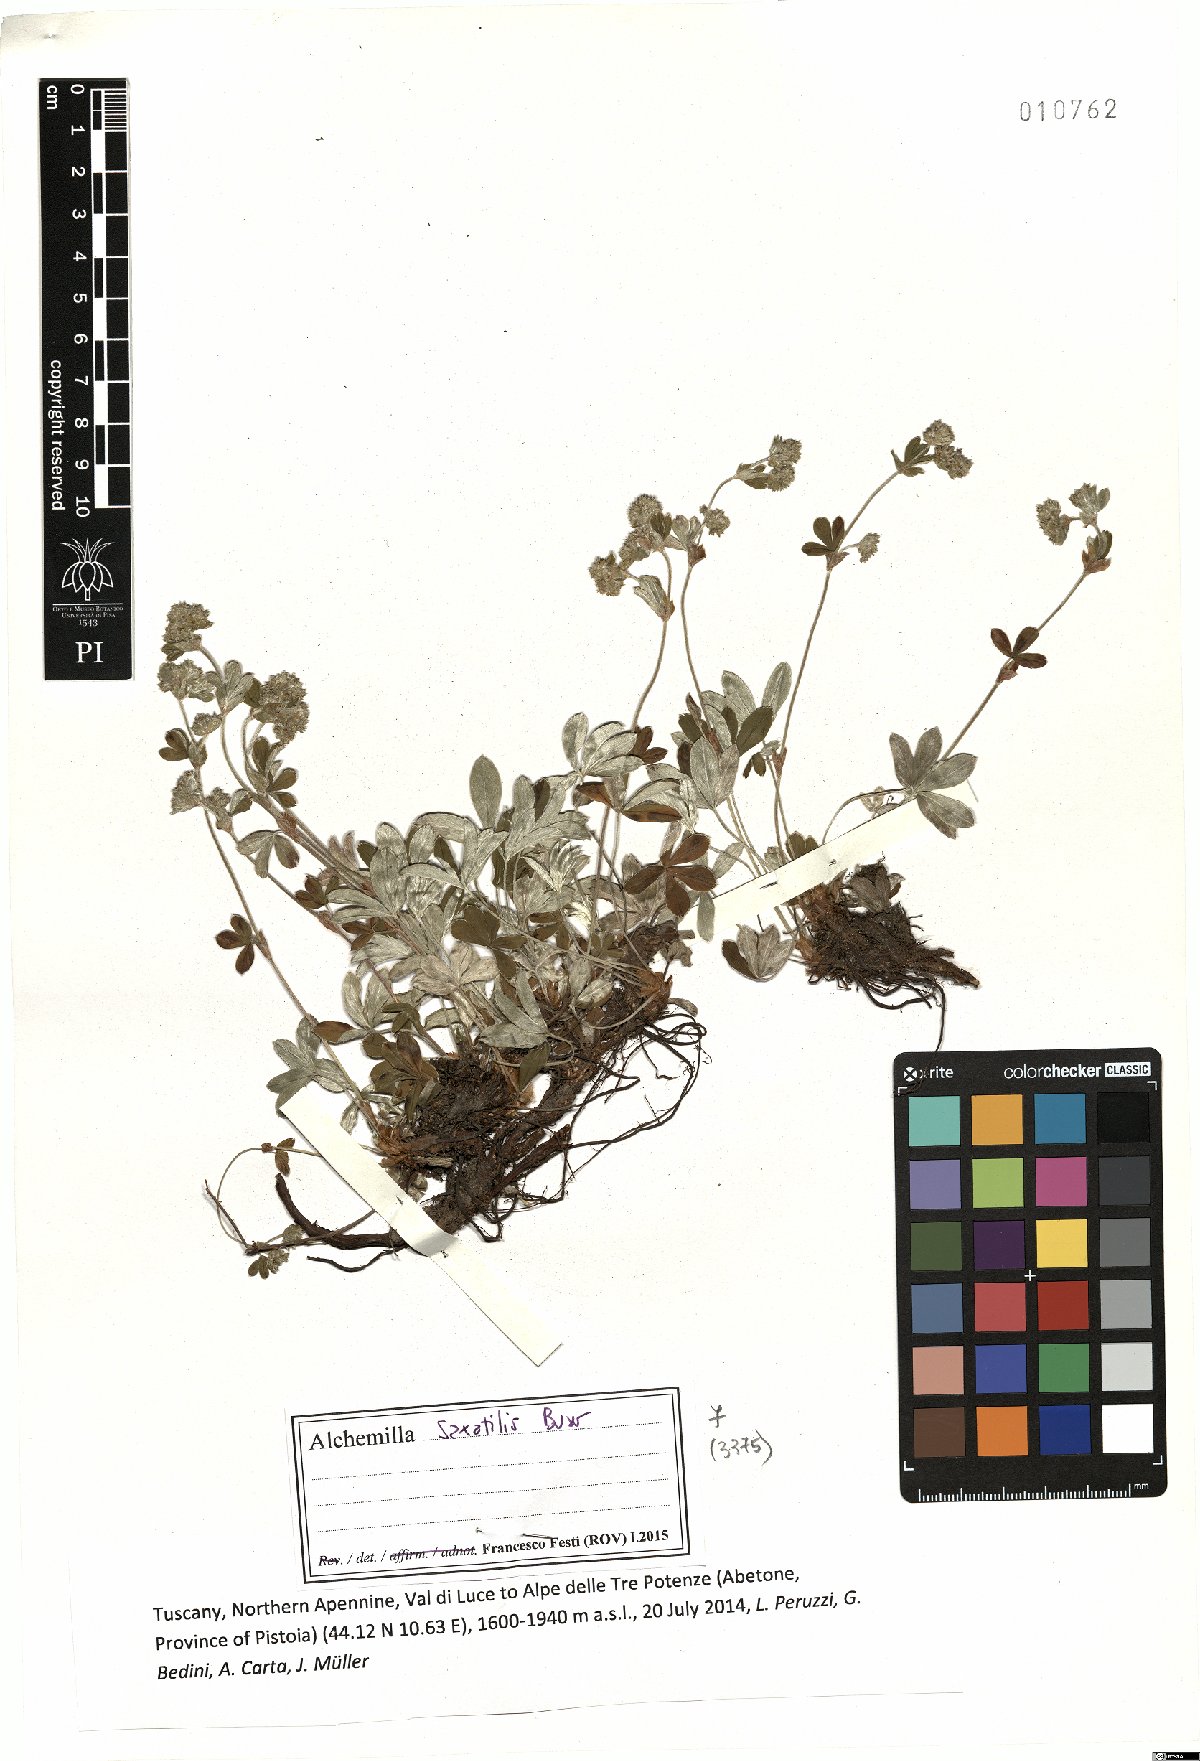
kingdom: Plantae
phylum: Tracheophyta
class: Magnoliopsida
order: Rosales
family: Rosaceae
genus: Alchemilla
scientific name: Alchemilla saxatilis
